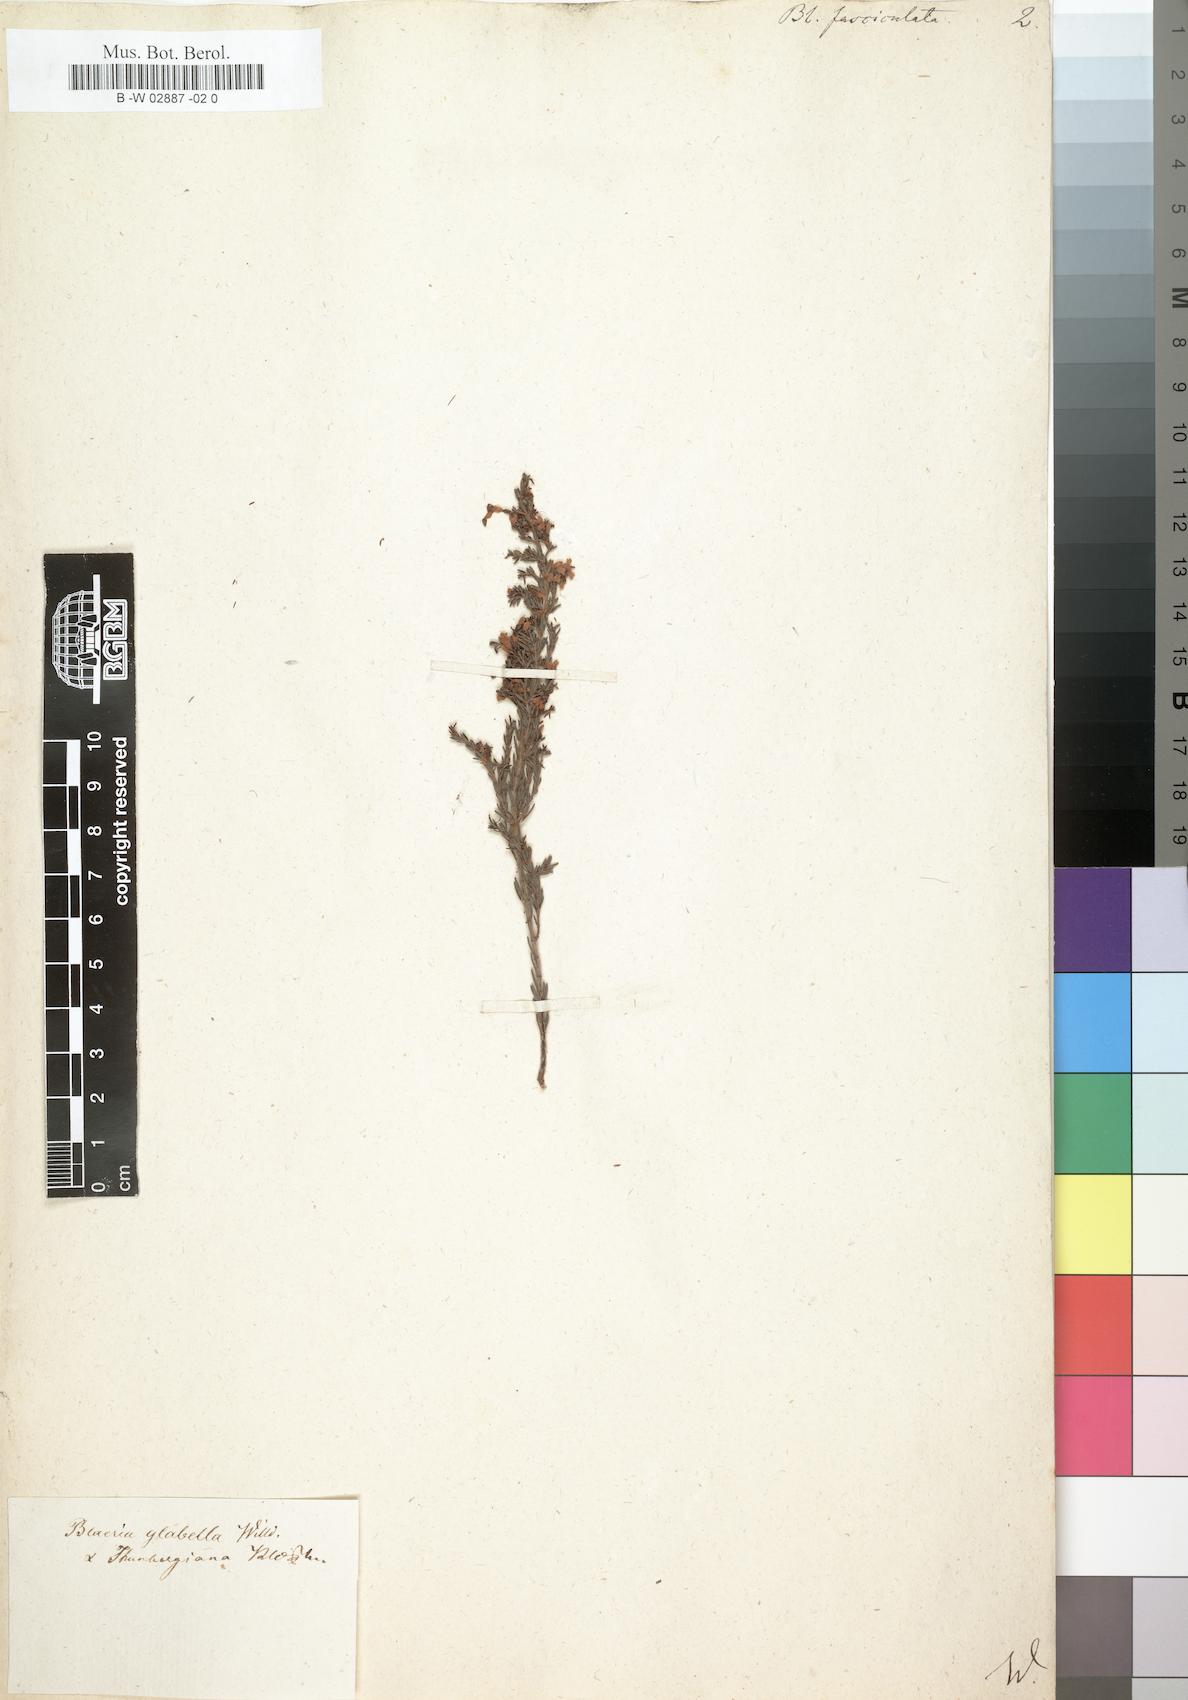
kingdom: Plantae
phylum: Tracheophyta
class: Magnoliopsida
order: Ericales
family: Ericaceae
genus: Erica
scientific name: Erica glabella
